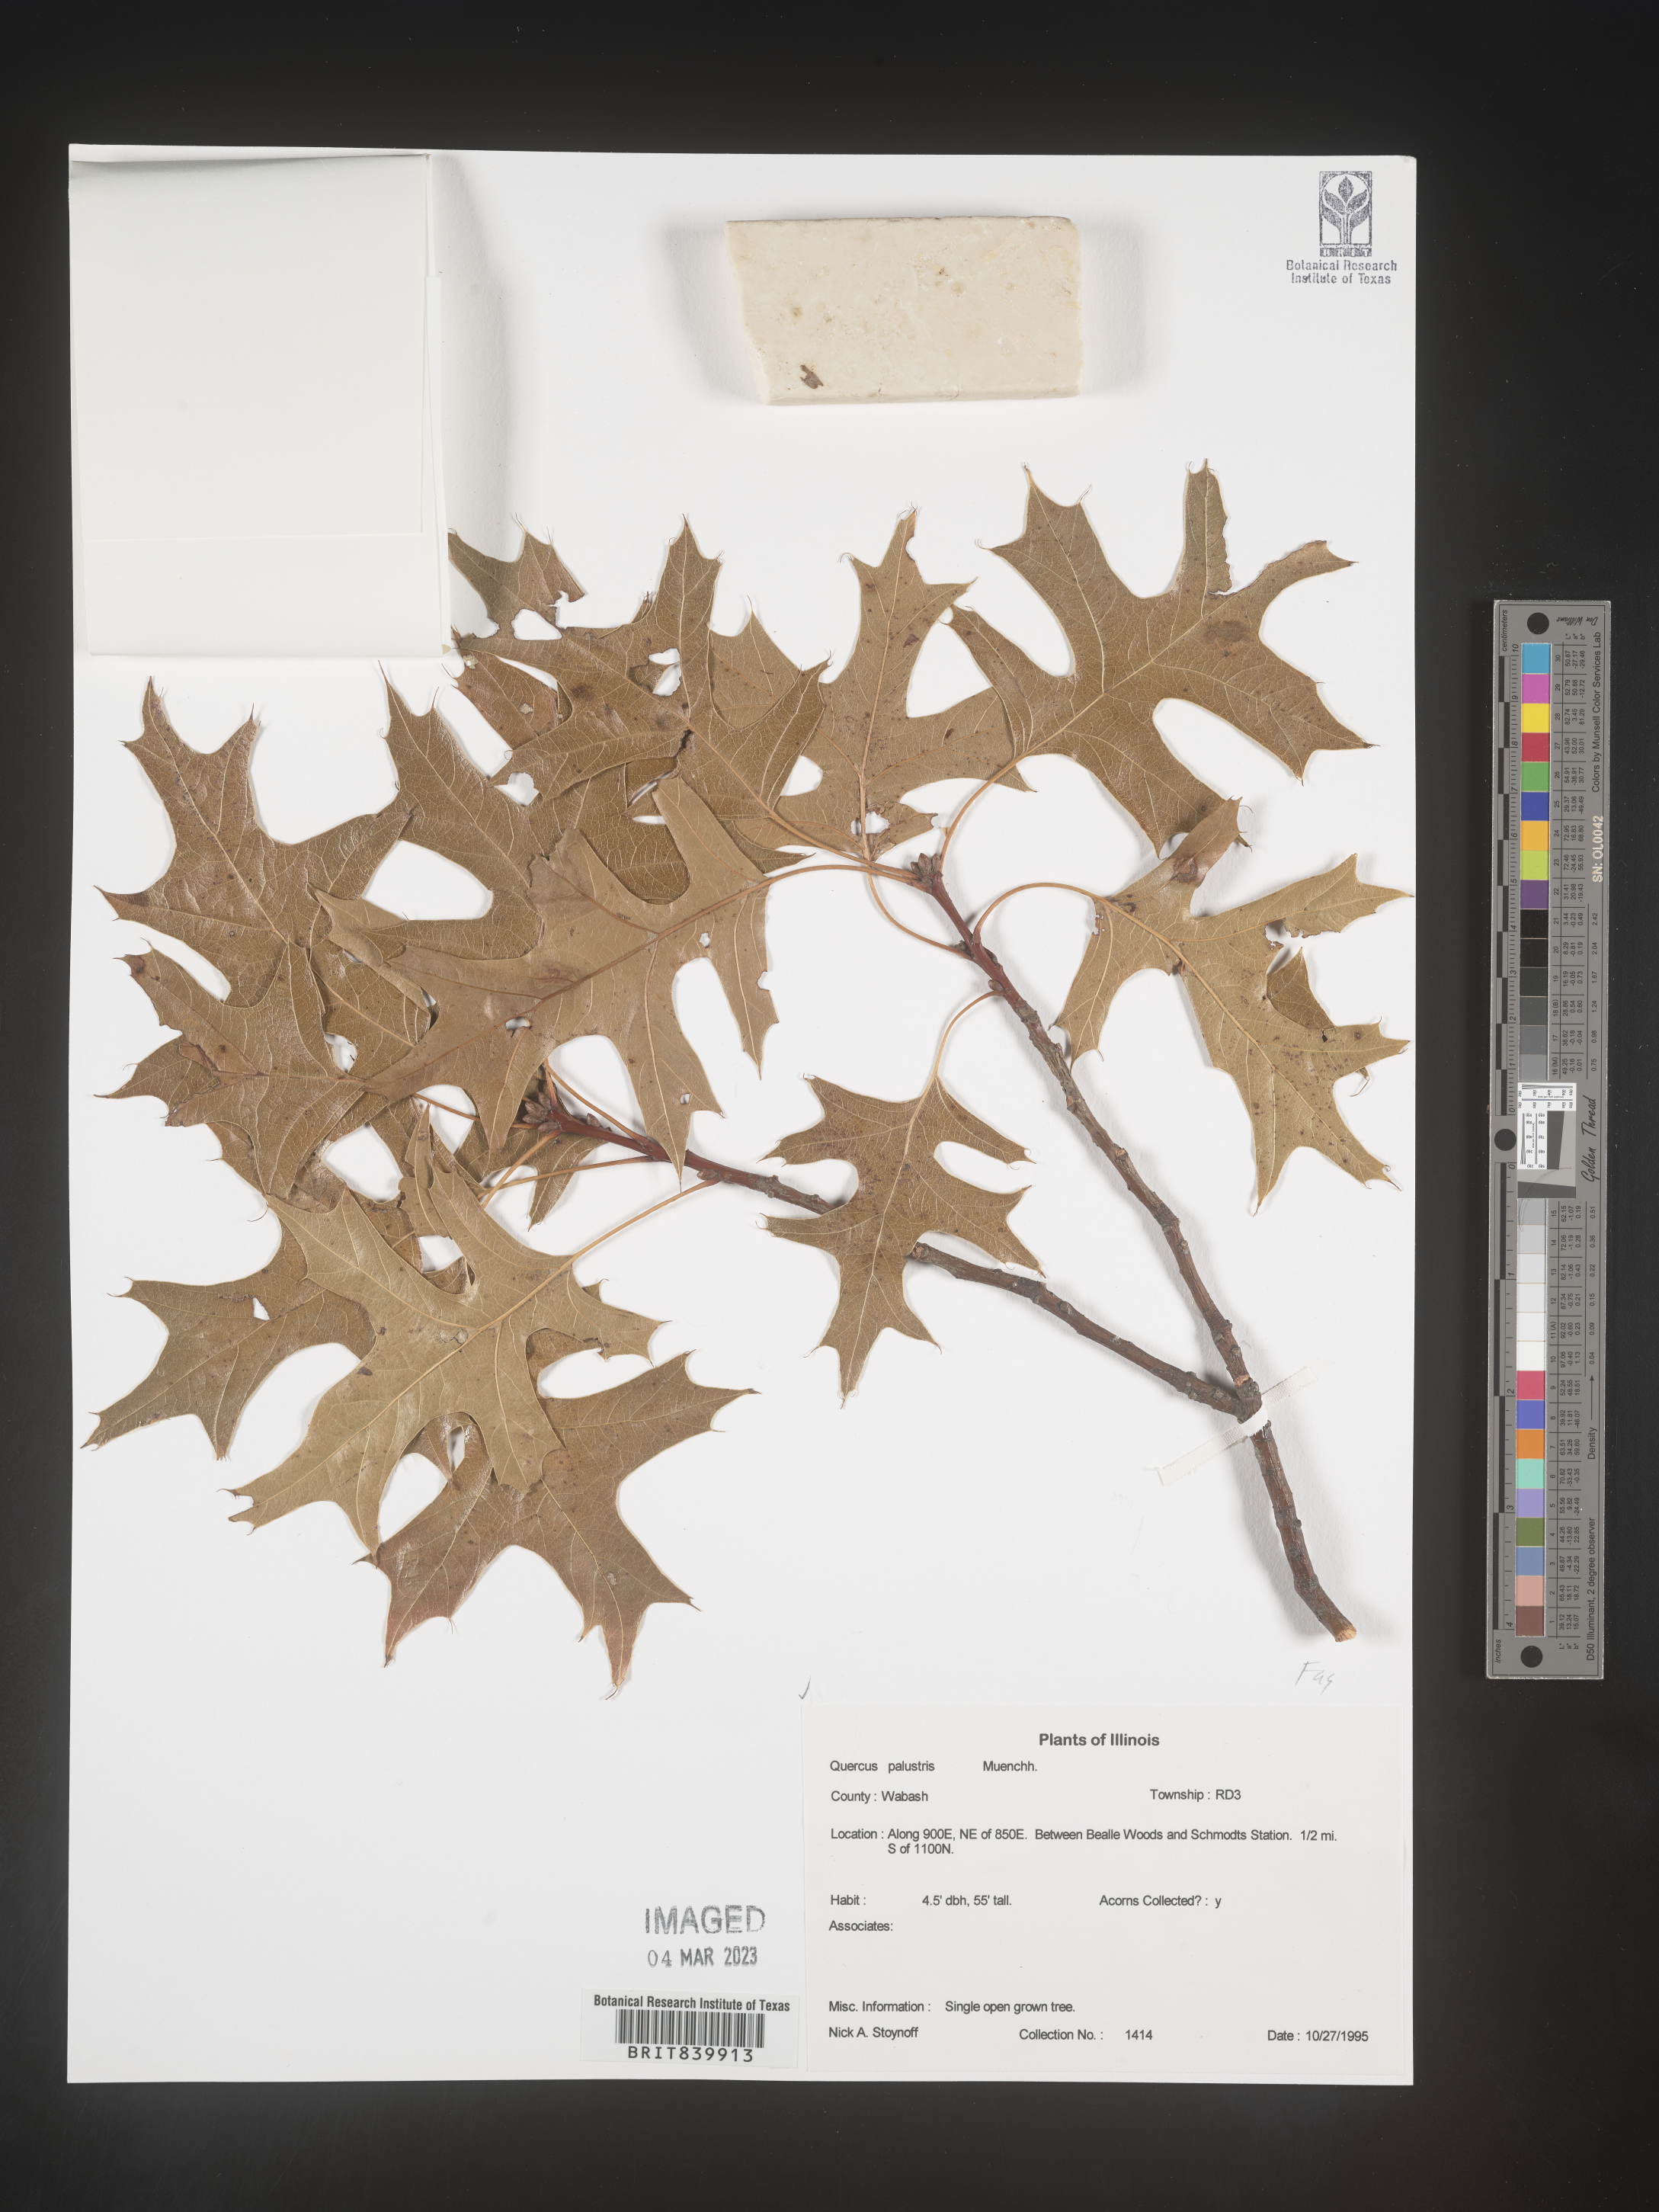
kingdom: Plantae
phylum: Tracheophyta
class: Magnoliopsida
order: Fagales
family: Fagaceae
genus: Quercus
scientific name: Quercus palustris
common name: Pin oak
